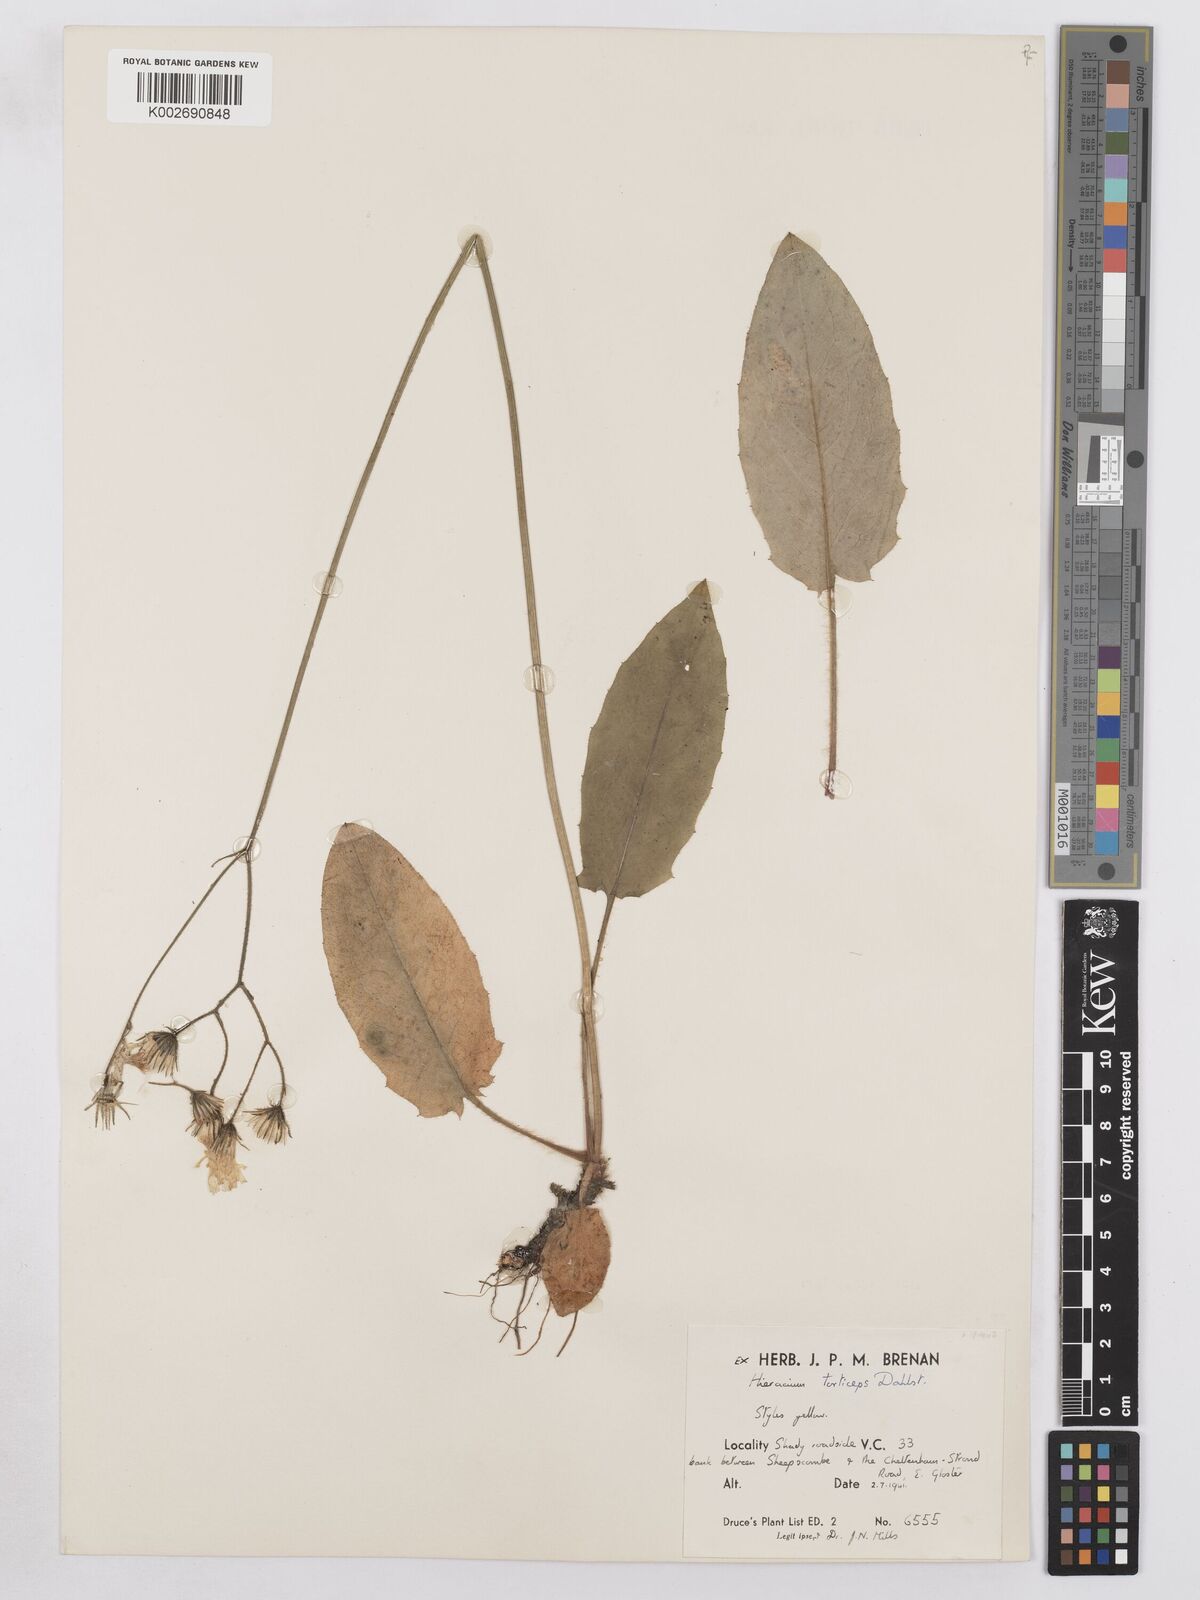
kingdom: Plantae
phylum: Tracheophyta
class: Magnoliopsida
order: Asterales
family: Asteraceae
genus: Hieracium
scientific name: Hieracium murorum
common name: Wall hawkweed
